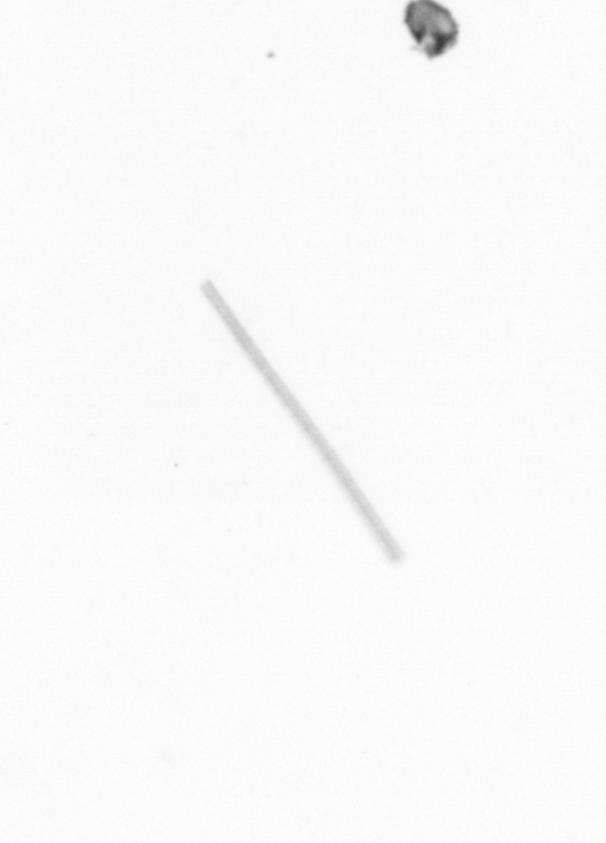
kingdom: Chromista
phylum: Ochrophyta
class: Bacillariophyceae
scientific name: Bacillariophyceae
